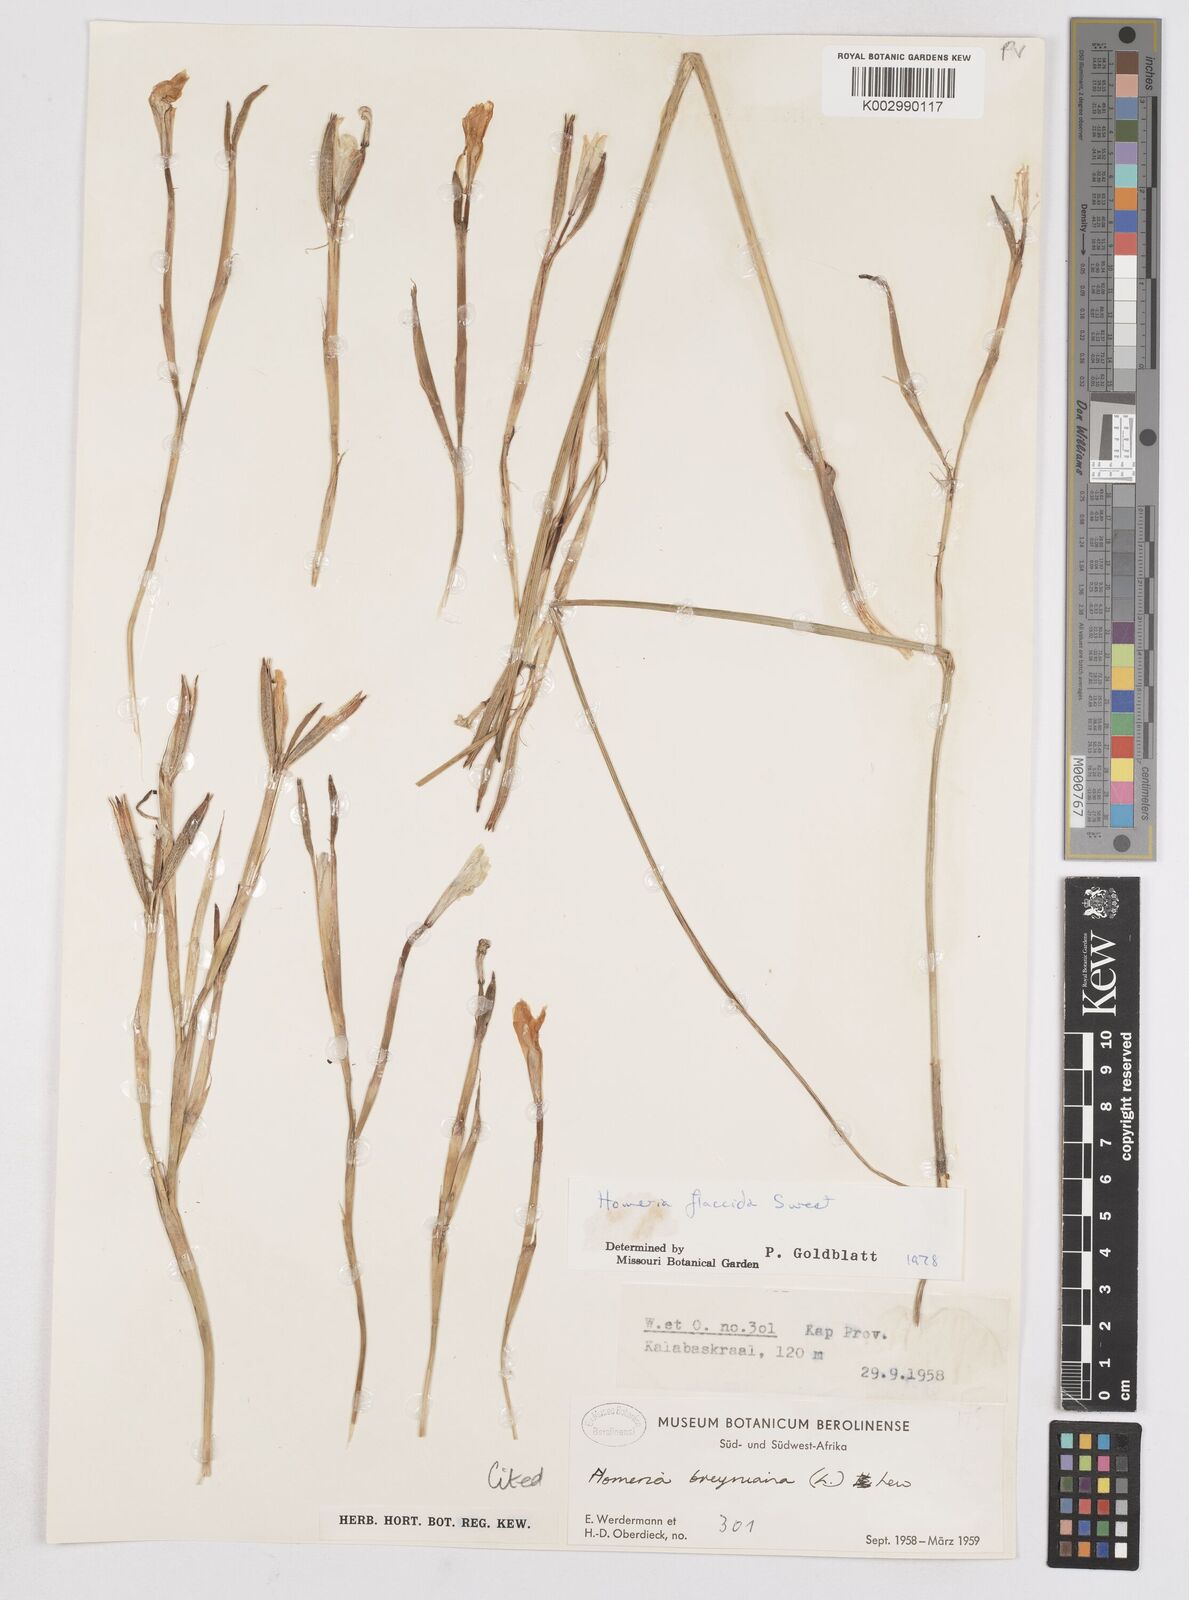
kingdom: Plantae
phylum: Tracheophyta
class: Liliopsida
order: Asparagales
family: Iridaceae
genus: Moraea
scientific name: Moraea flaccida
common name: One-leaf cape-tulip
